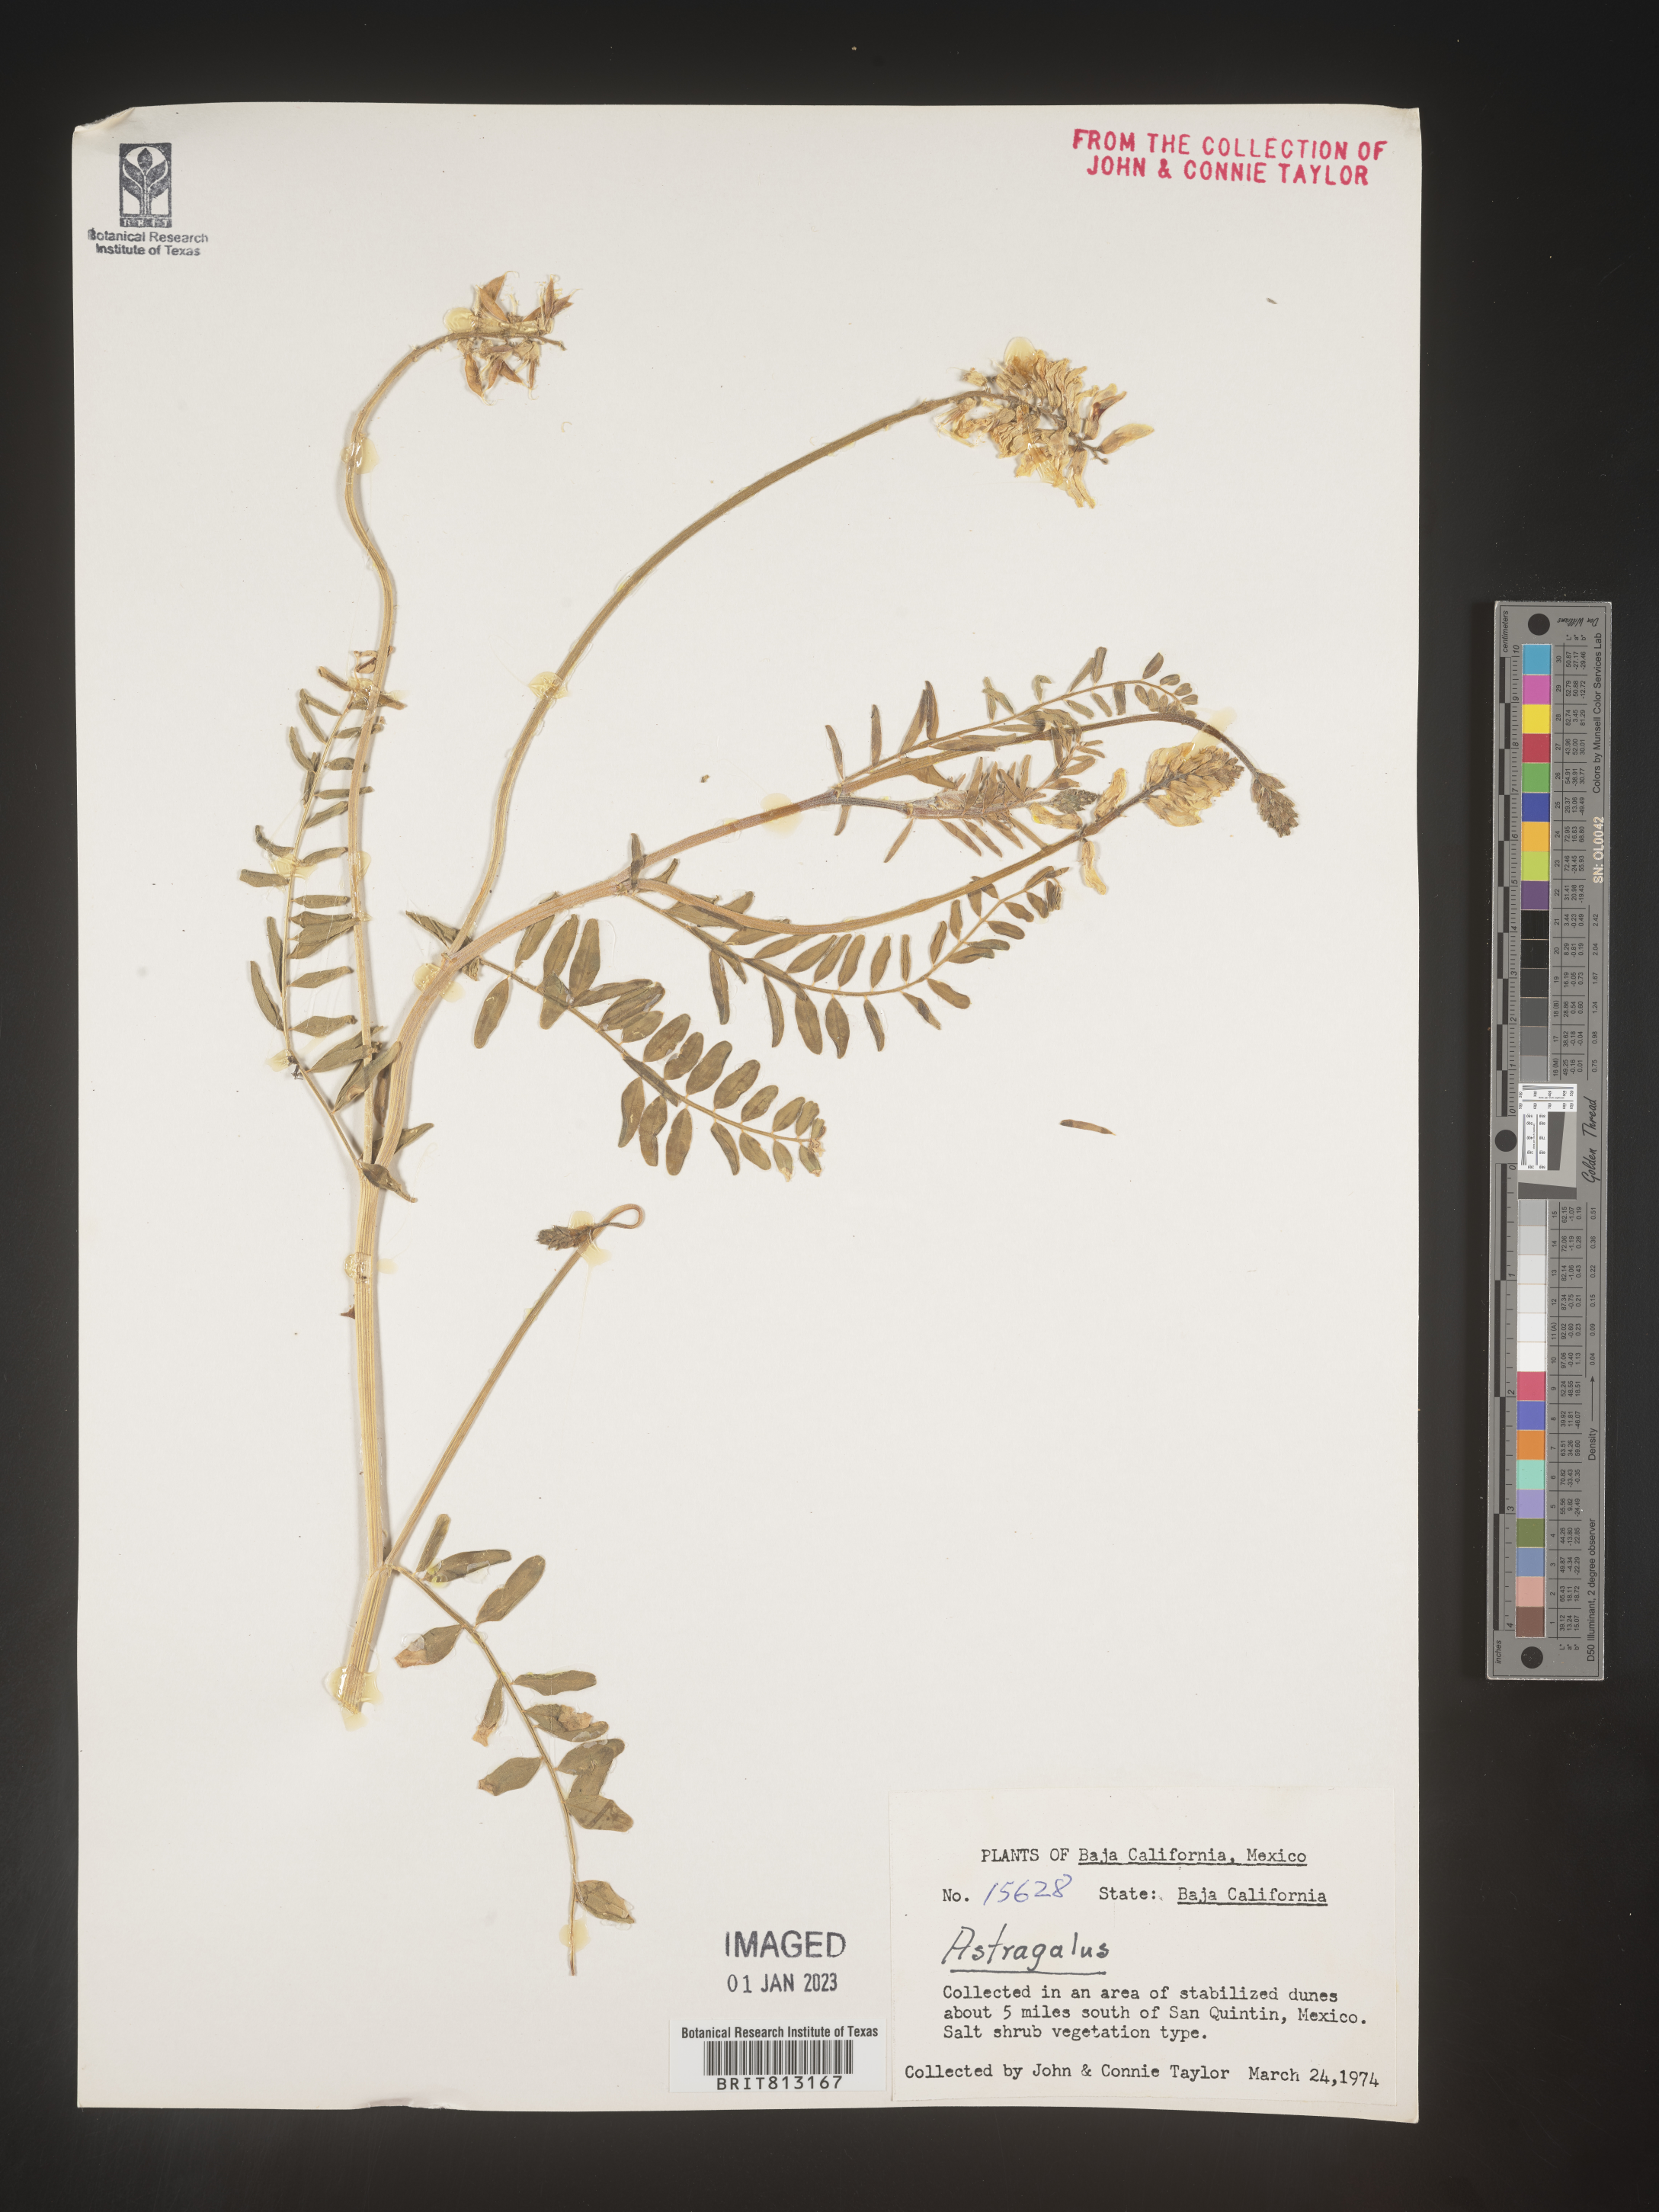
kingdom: Plantae
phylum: Tracheophyta
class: Magnoliopsida
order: Fabales
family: Fabaceae
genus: Astragalus
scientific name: Astragalus
